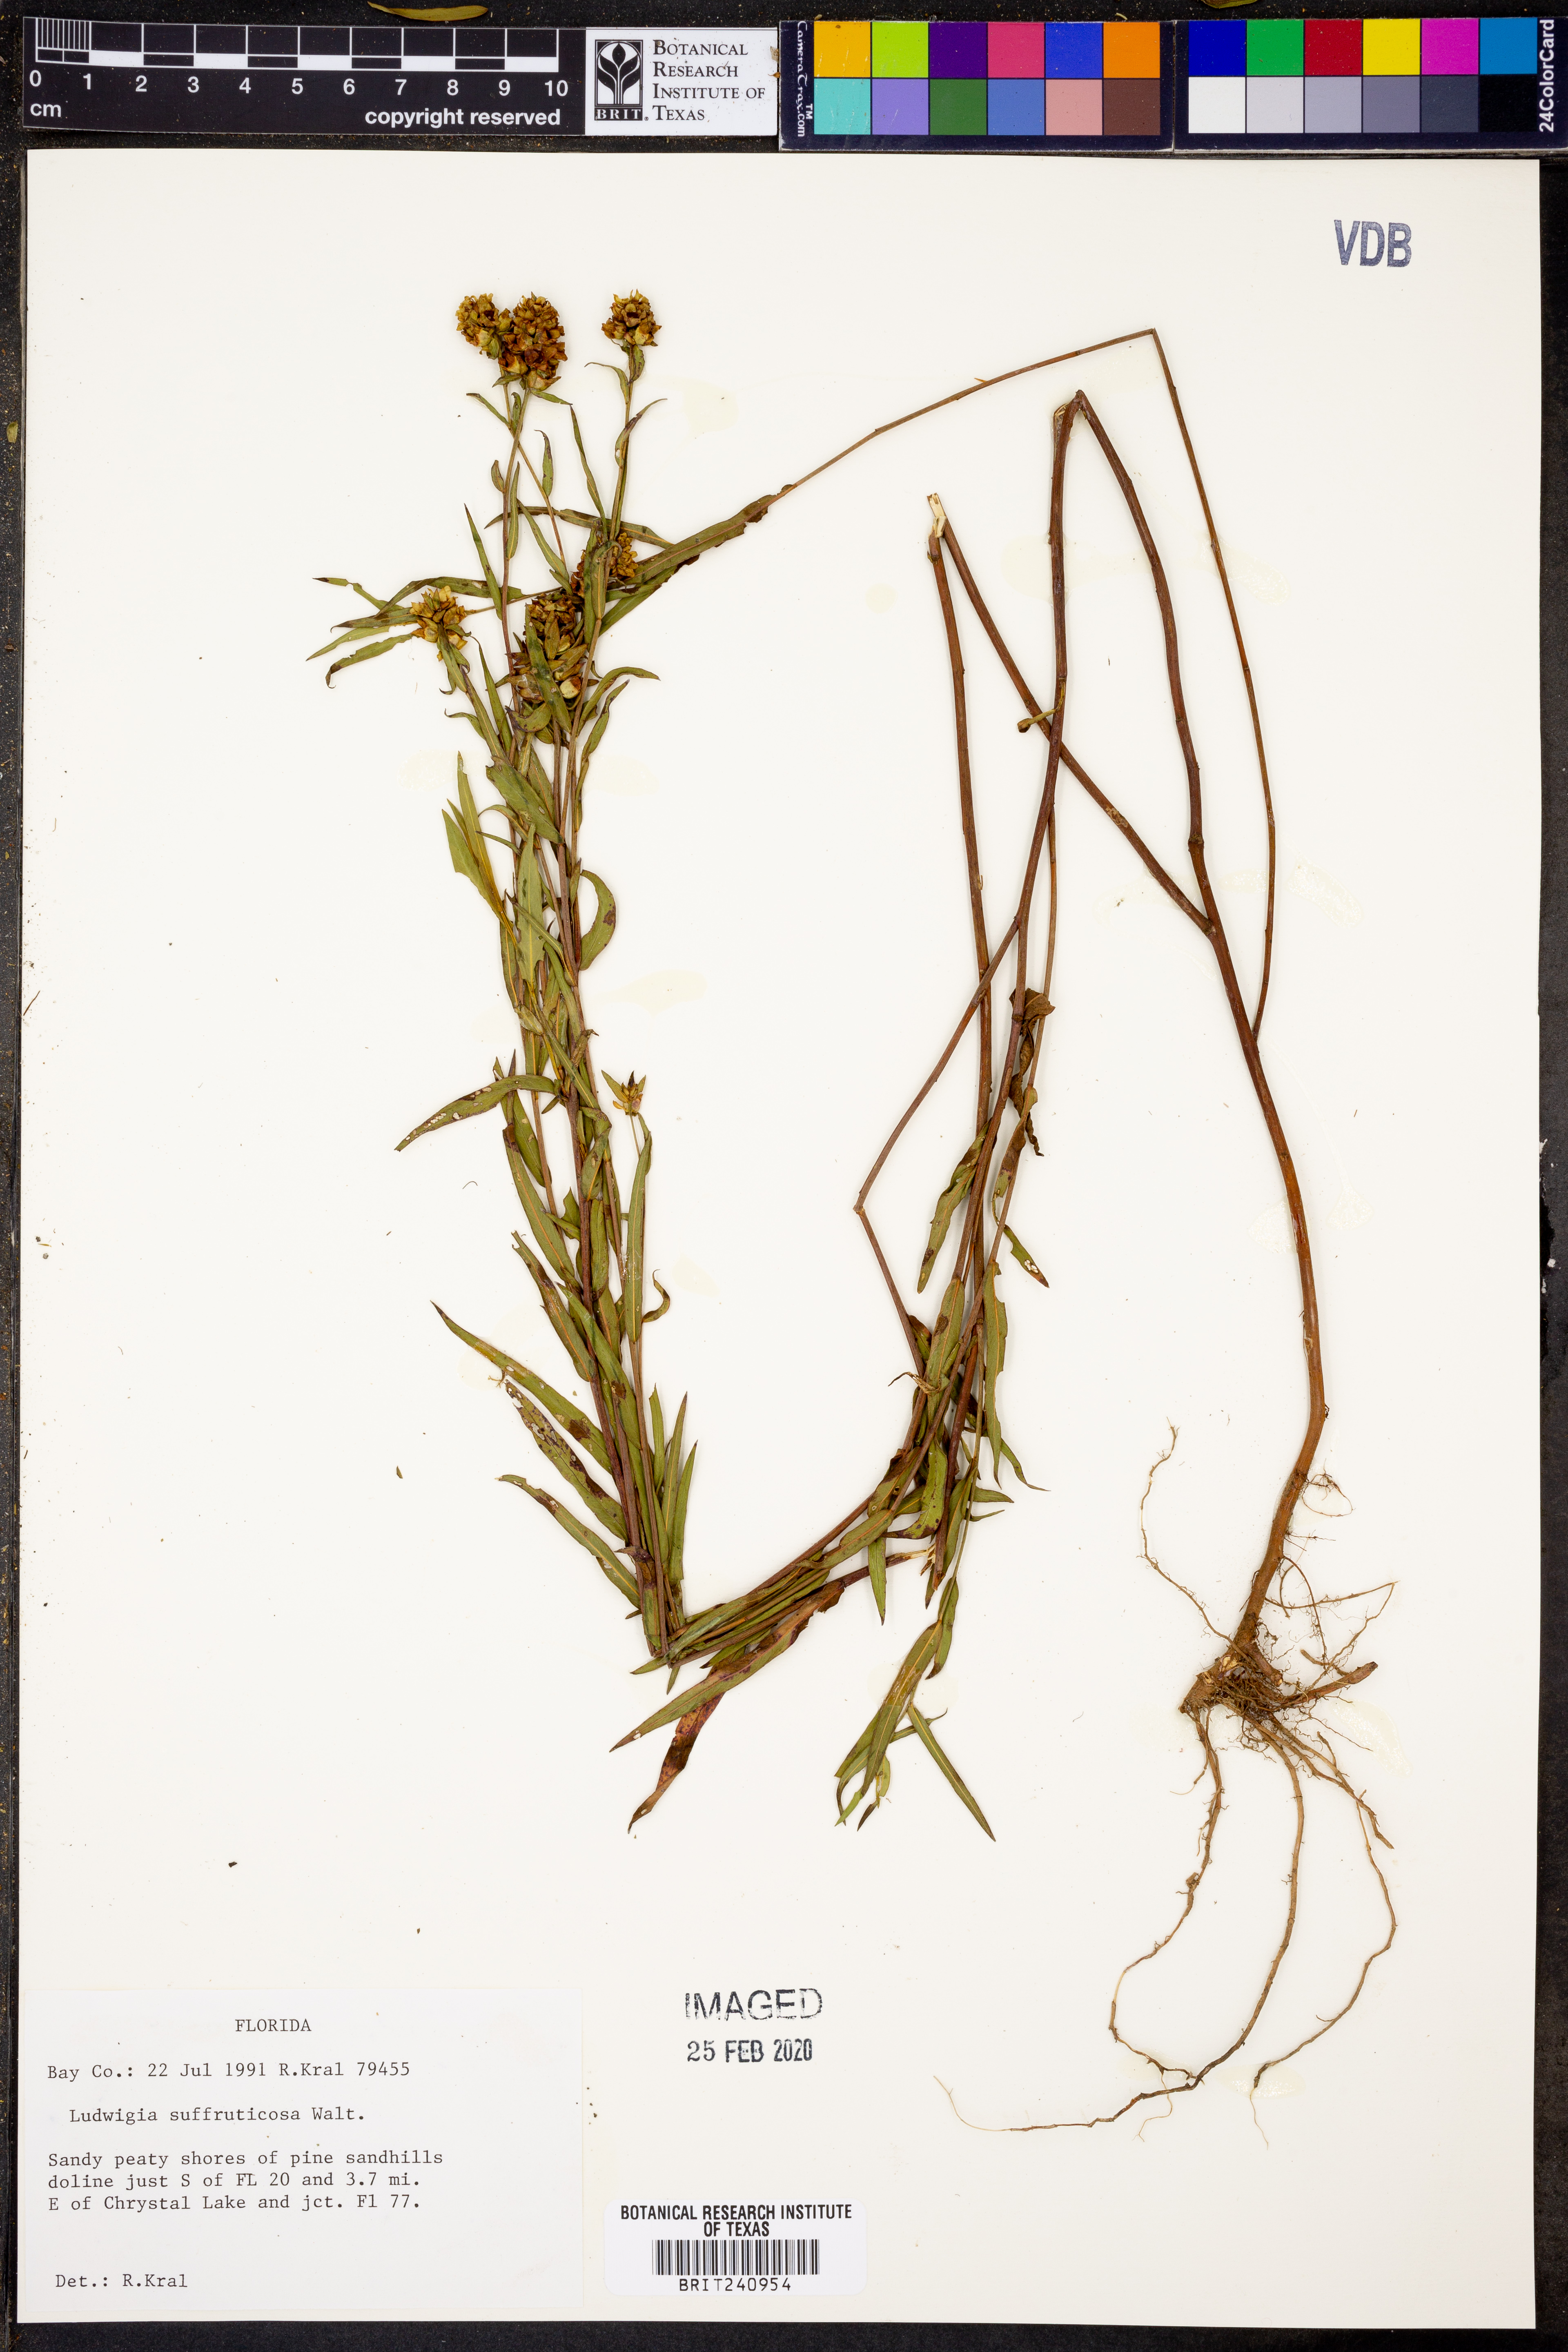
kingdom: Plantae
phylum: Tracheophyta
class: Magnoliopsida
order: Myrtales
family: Onagraceae
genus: Ludwigia
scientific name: Ludwigia suffruticosa
